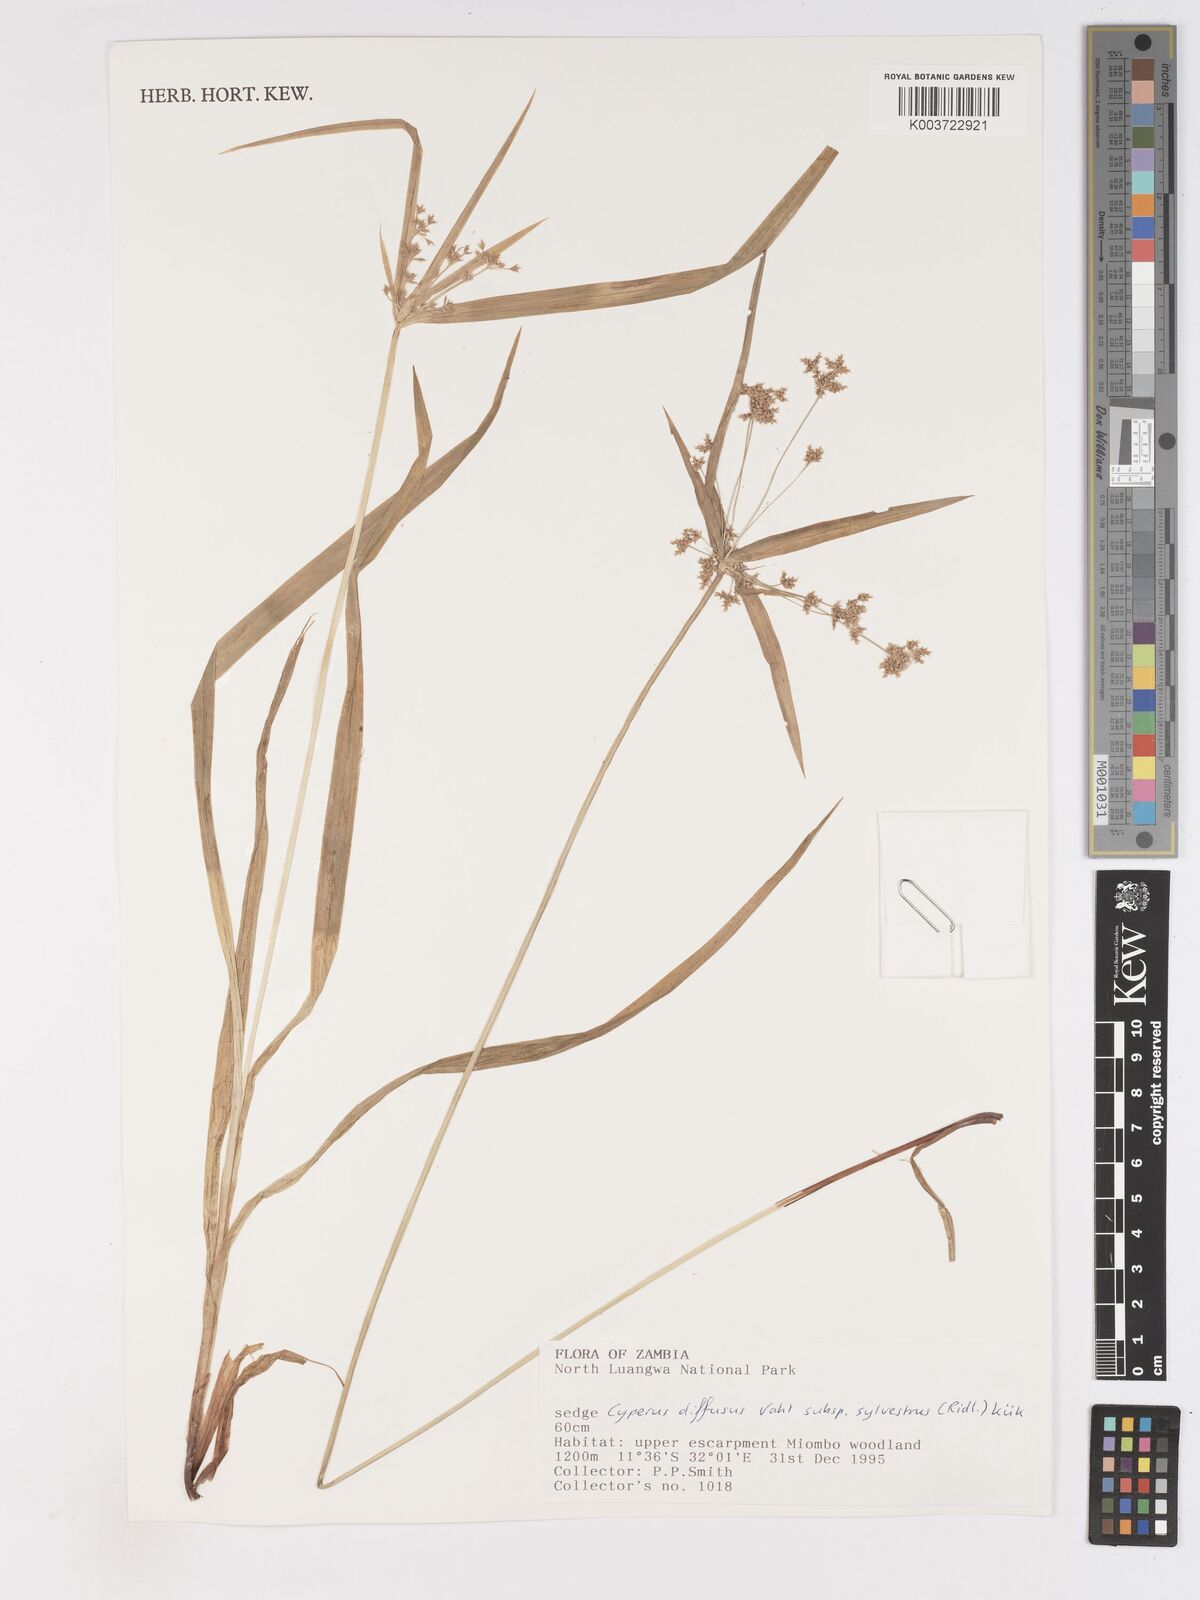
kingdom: Plantae
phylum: Tracheophyta
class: Liliopsida
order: Poales
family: Cyperaceae
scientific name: Cyperaceae
